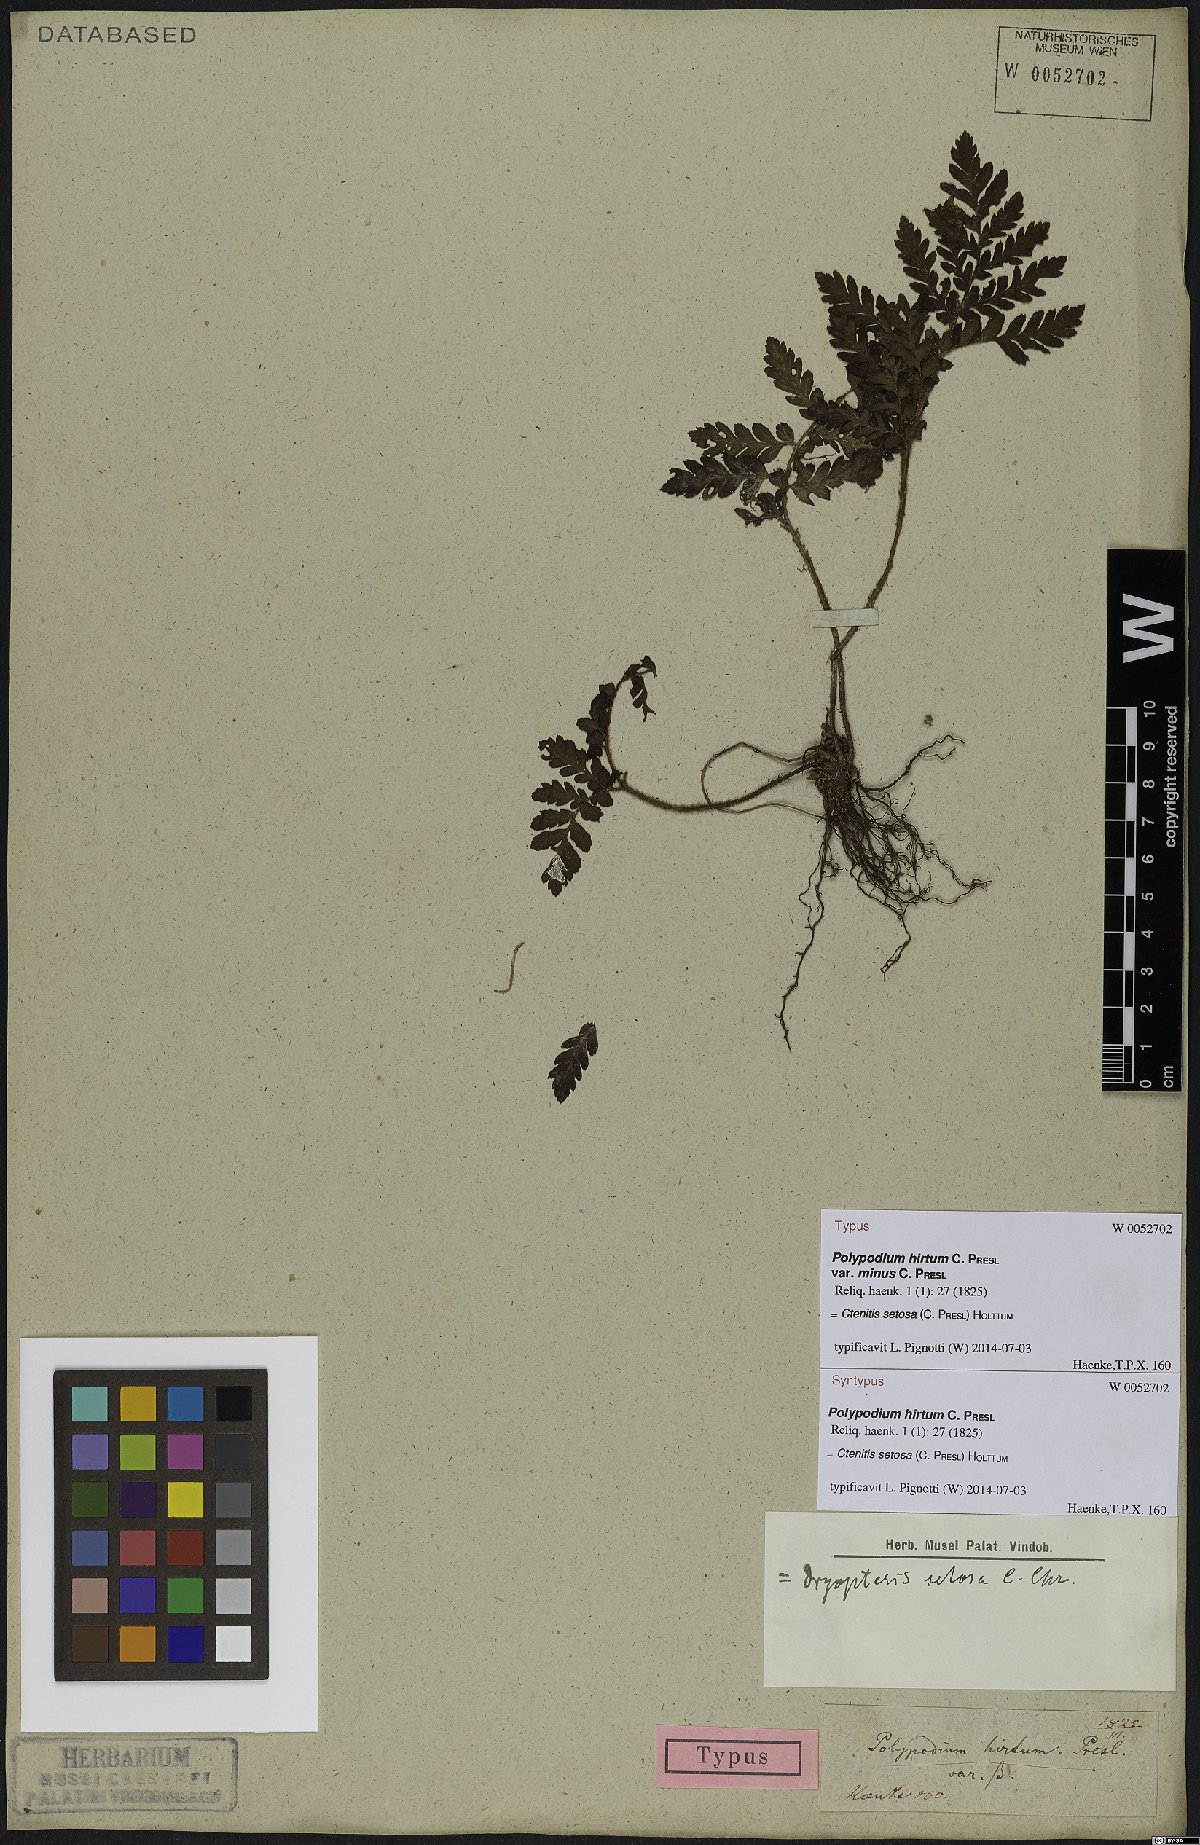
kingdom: Plantae
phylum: Tracheophyta
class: Polypodiopsida
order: Polypodiales
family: Dryopteridaceae
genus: Ctenitis
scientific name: Ctenitis setosa
